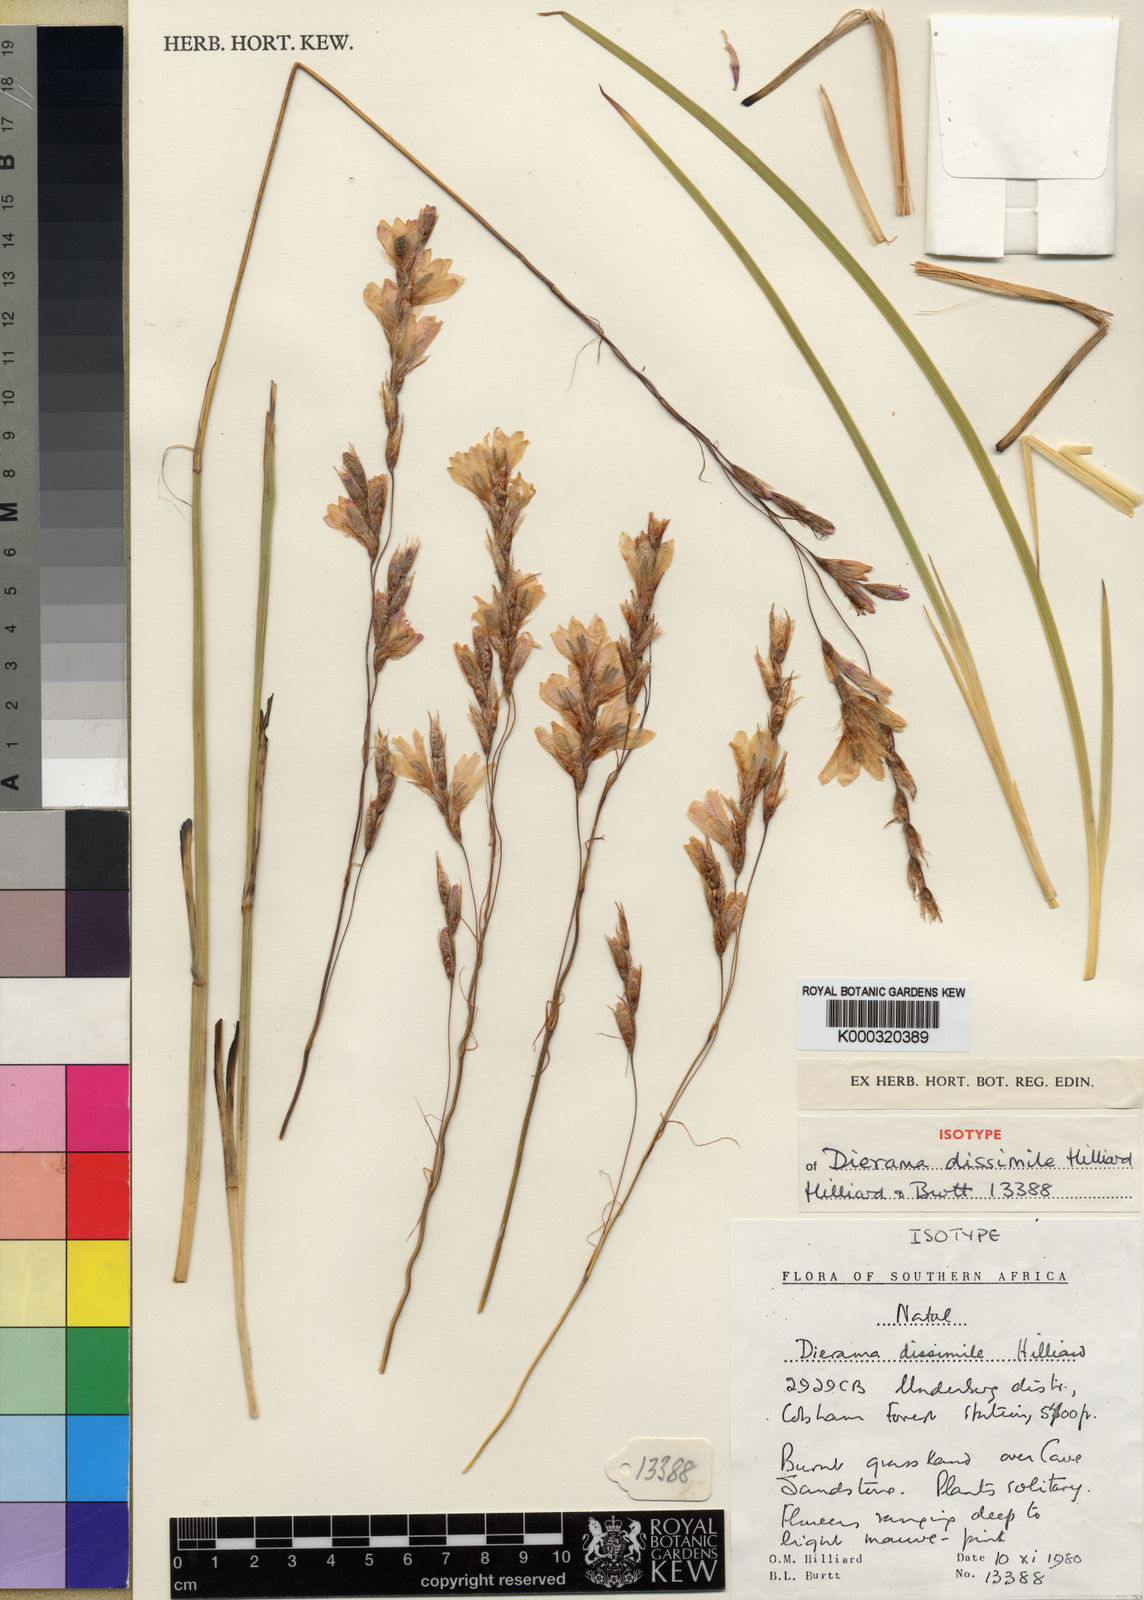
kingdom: Plantae
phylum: Tracheophyta
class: Liliopsida
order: Asparagales
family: Iridaceae
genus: Dierama
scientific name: Dierama dissimile
